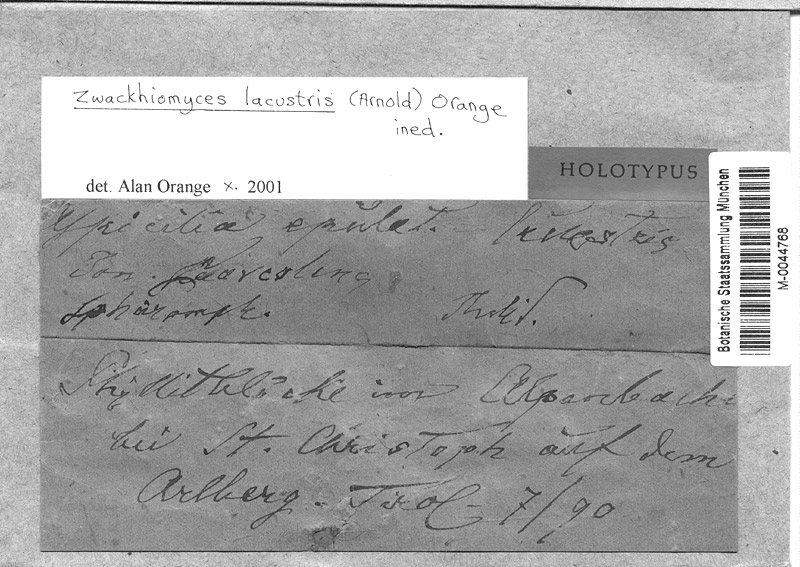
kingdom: Fungi
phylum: Ascomycota
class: Dothideomycetes
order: Collemopsidiales
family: Xanthopyreniaceae
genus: Zwackhiomyces
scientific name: Zwackhiomyces lacustris
